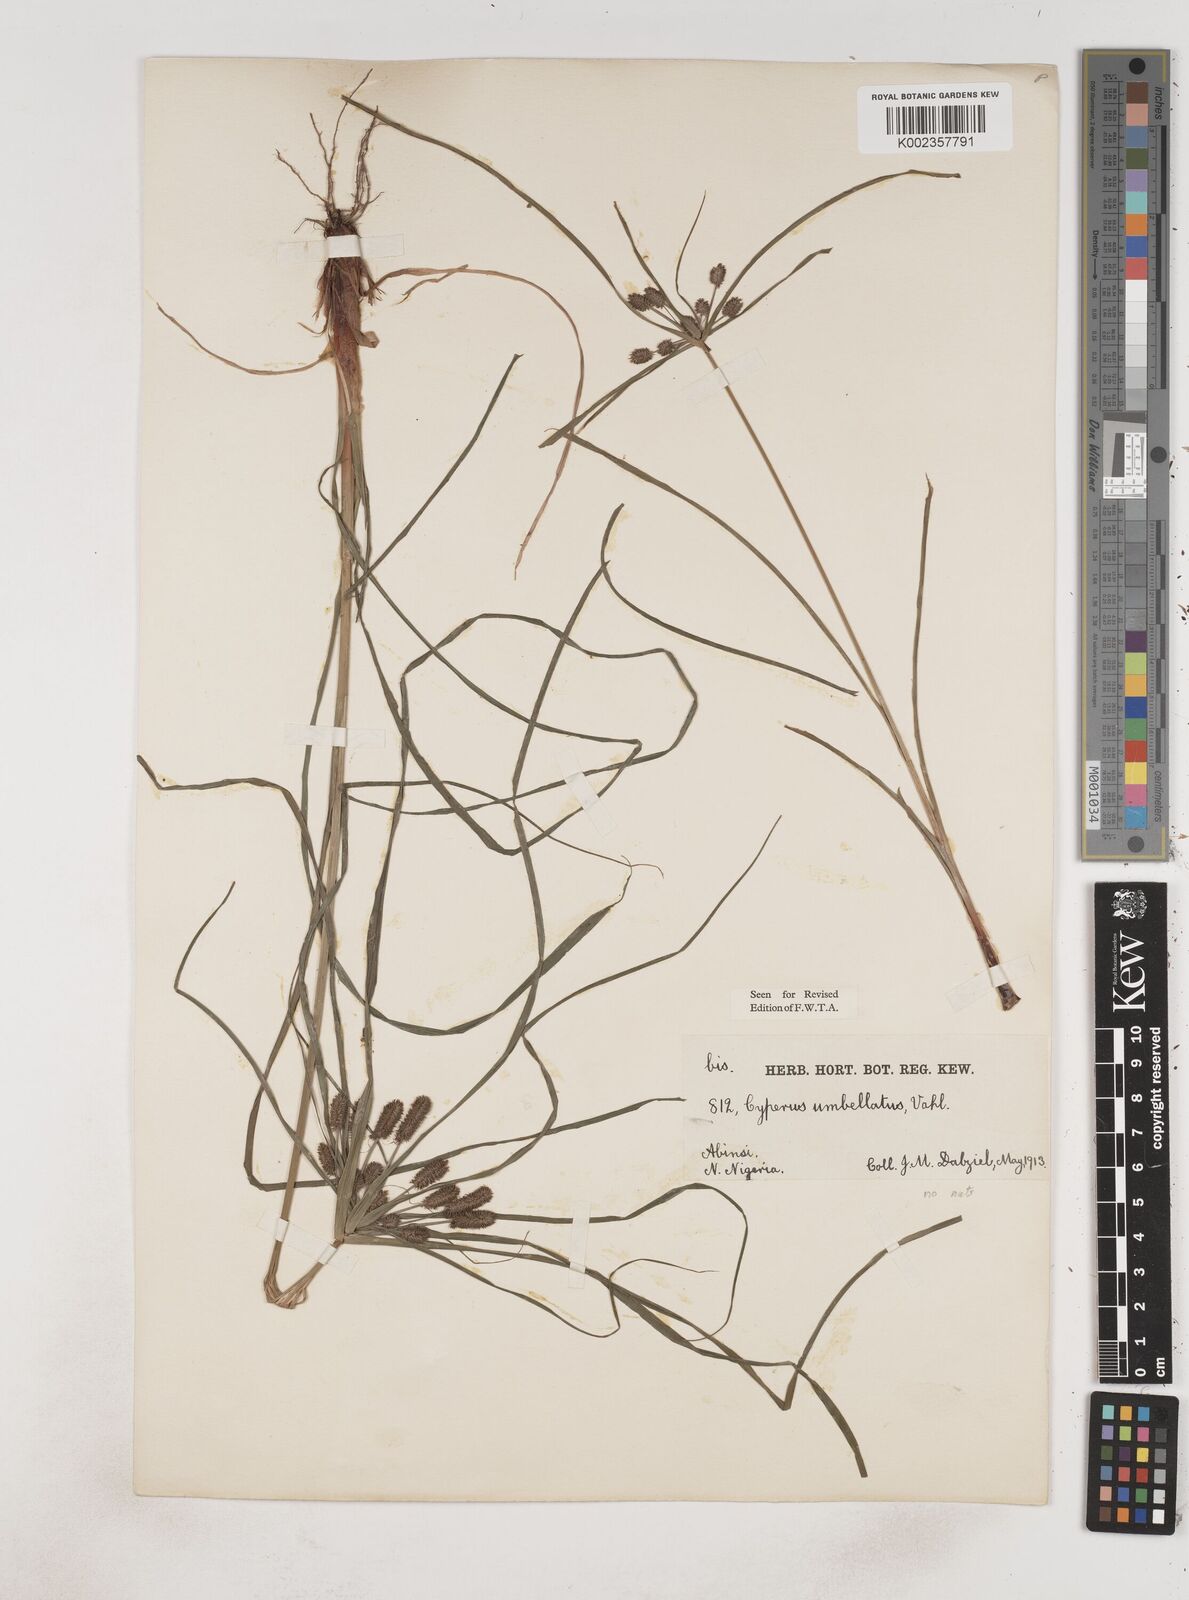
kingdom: Plantae
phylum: Tracheophyta
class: Liliopsida
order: Poales
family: Cyperaceae
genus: Cyperus
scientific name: Cyperus sublimis
